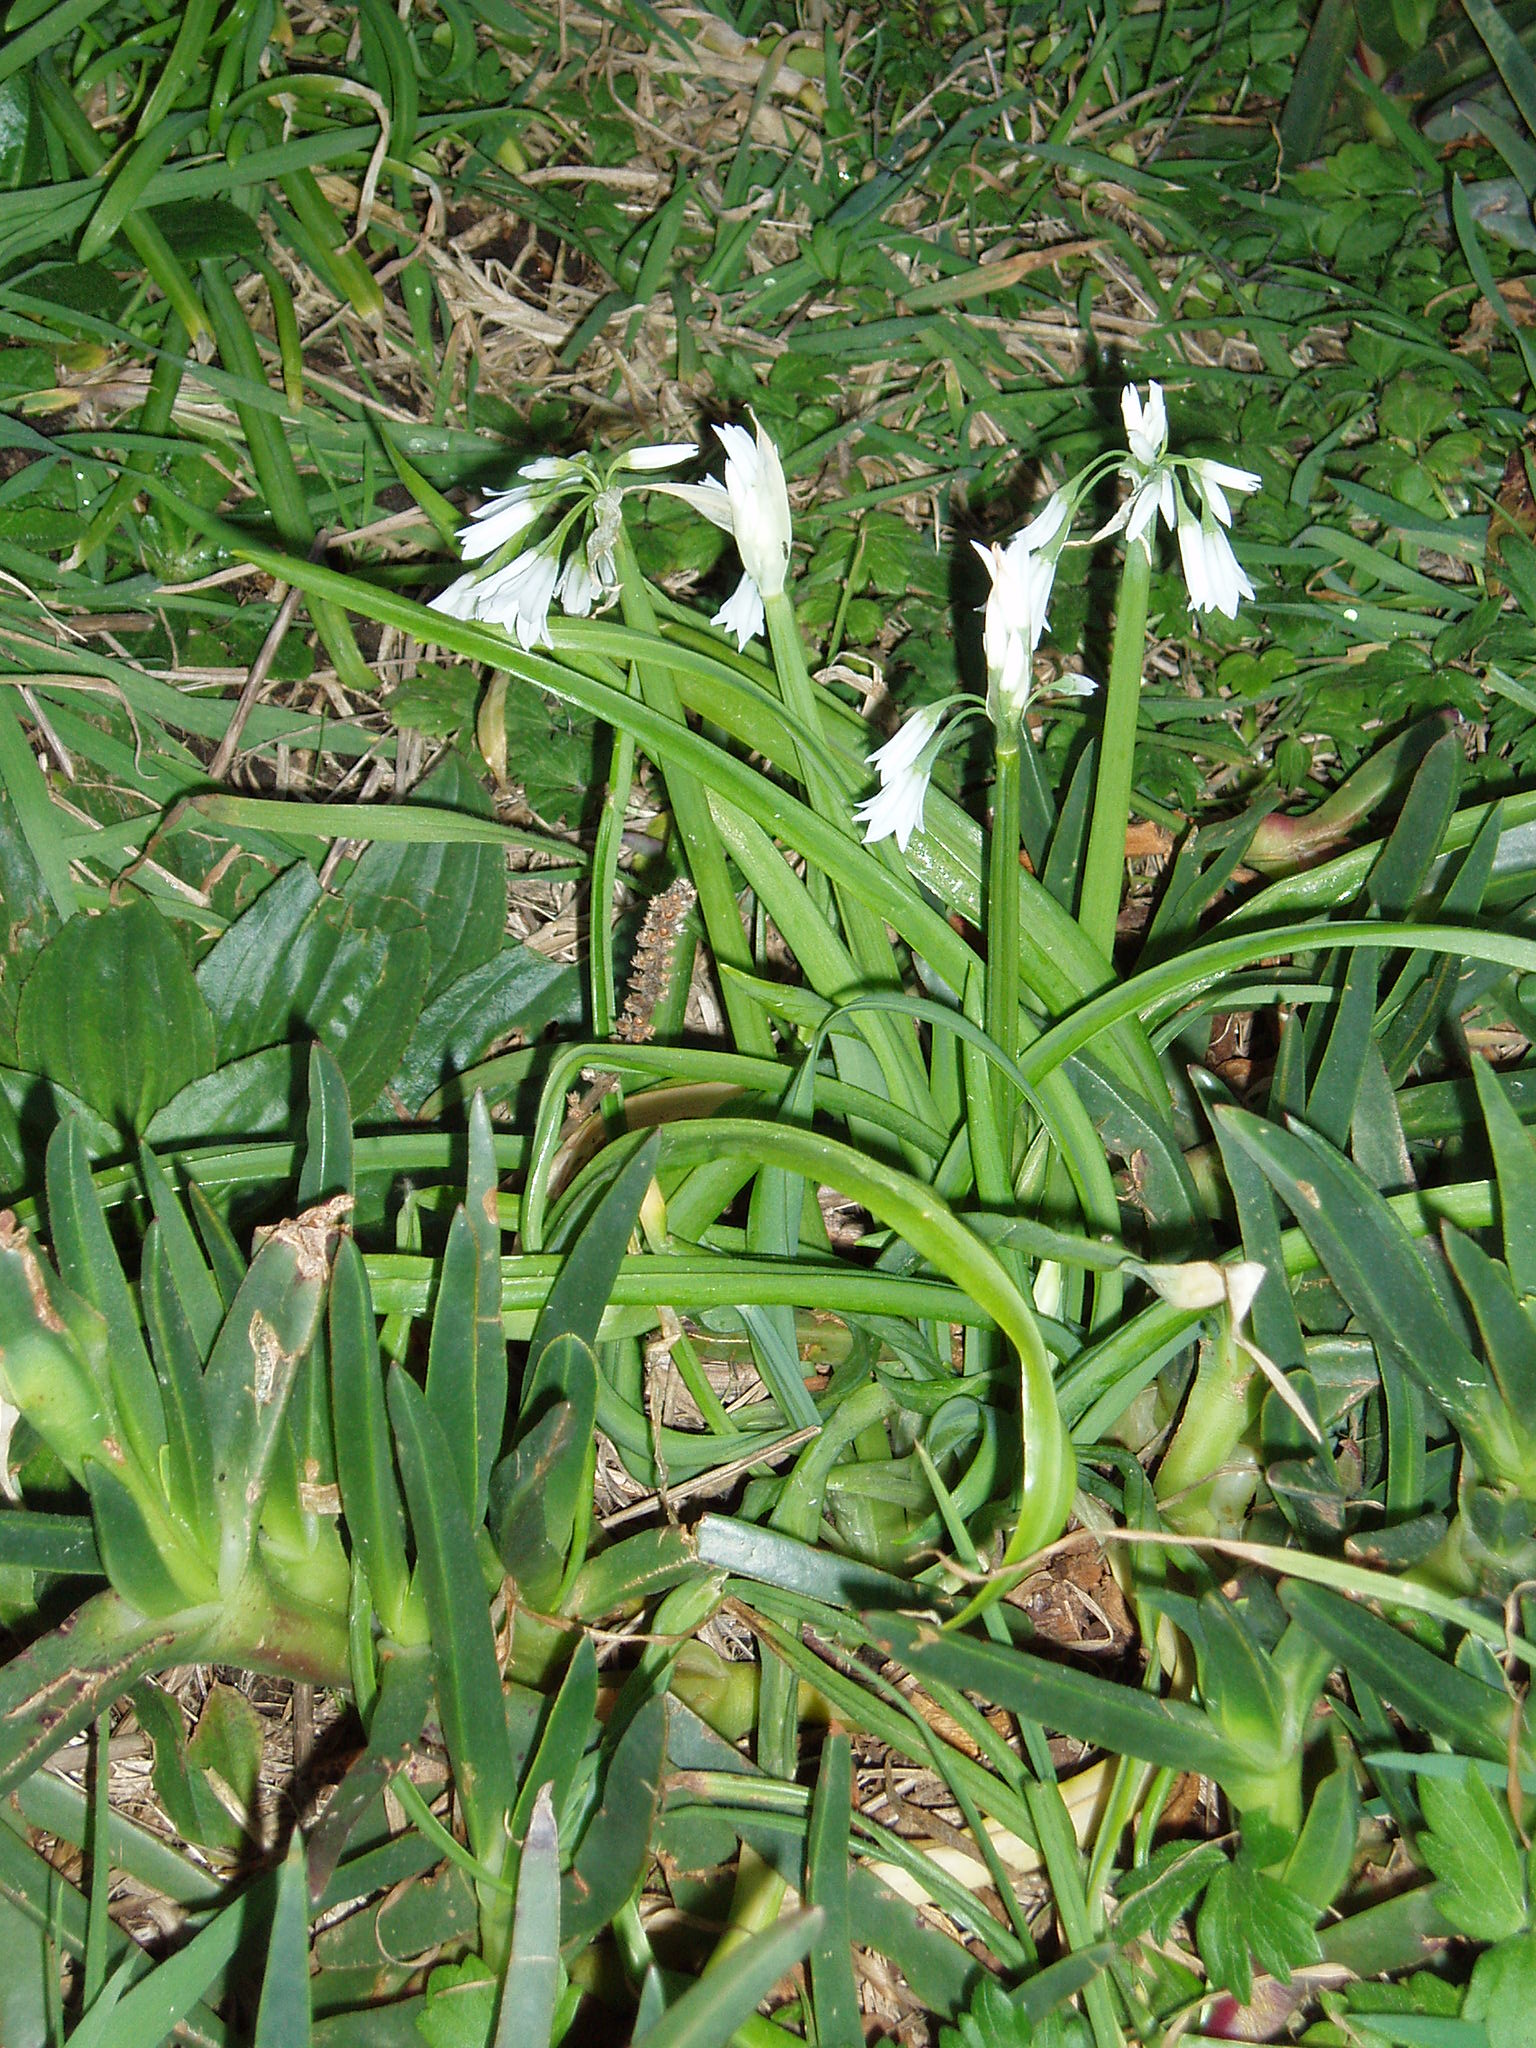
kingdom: Plantae
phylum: Tracheophyta
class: Liliopsida
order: Asparagales
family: Amaryllidaceae
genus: Allium
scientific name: Allium triquetrum
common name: Three-cornered garlic
